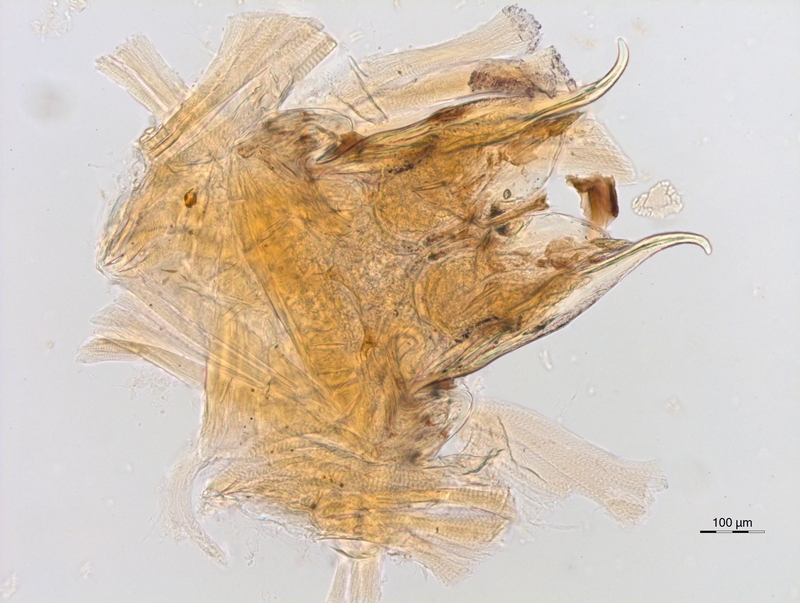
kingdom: Animalia
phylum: Arthropoda
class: Diplopoda
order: Chordeumatida
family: Anthroleucosomatidae
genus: Anamastigona
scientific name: Anamastigona hispidula
